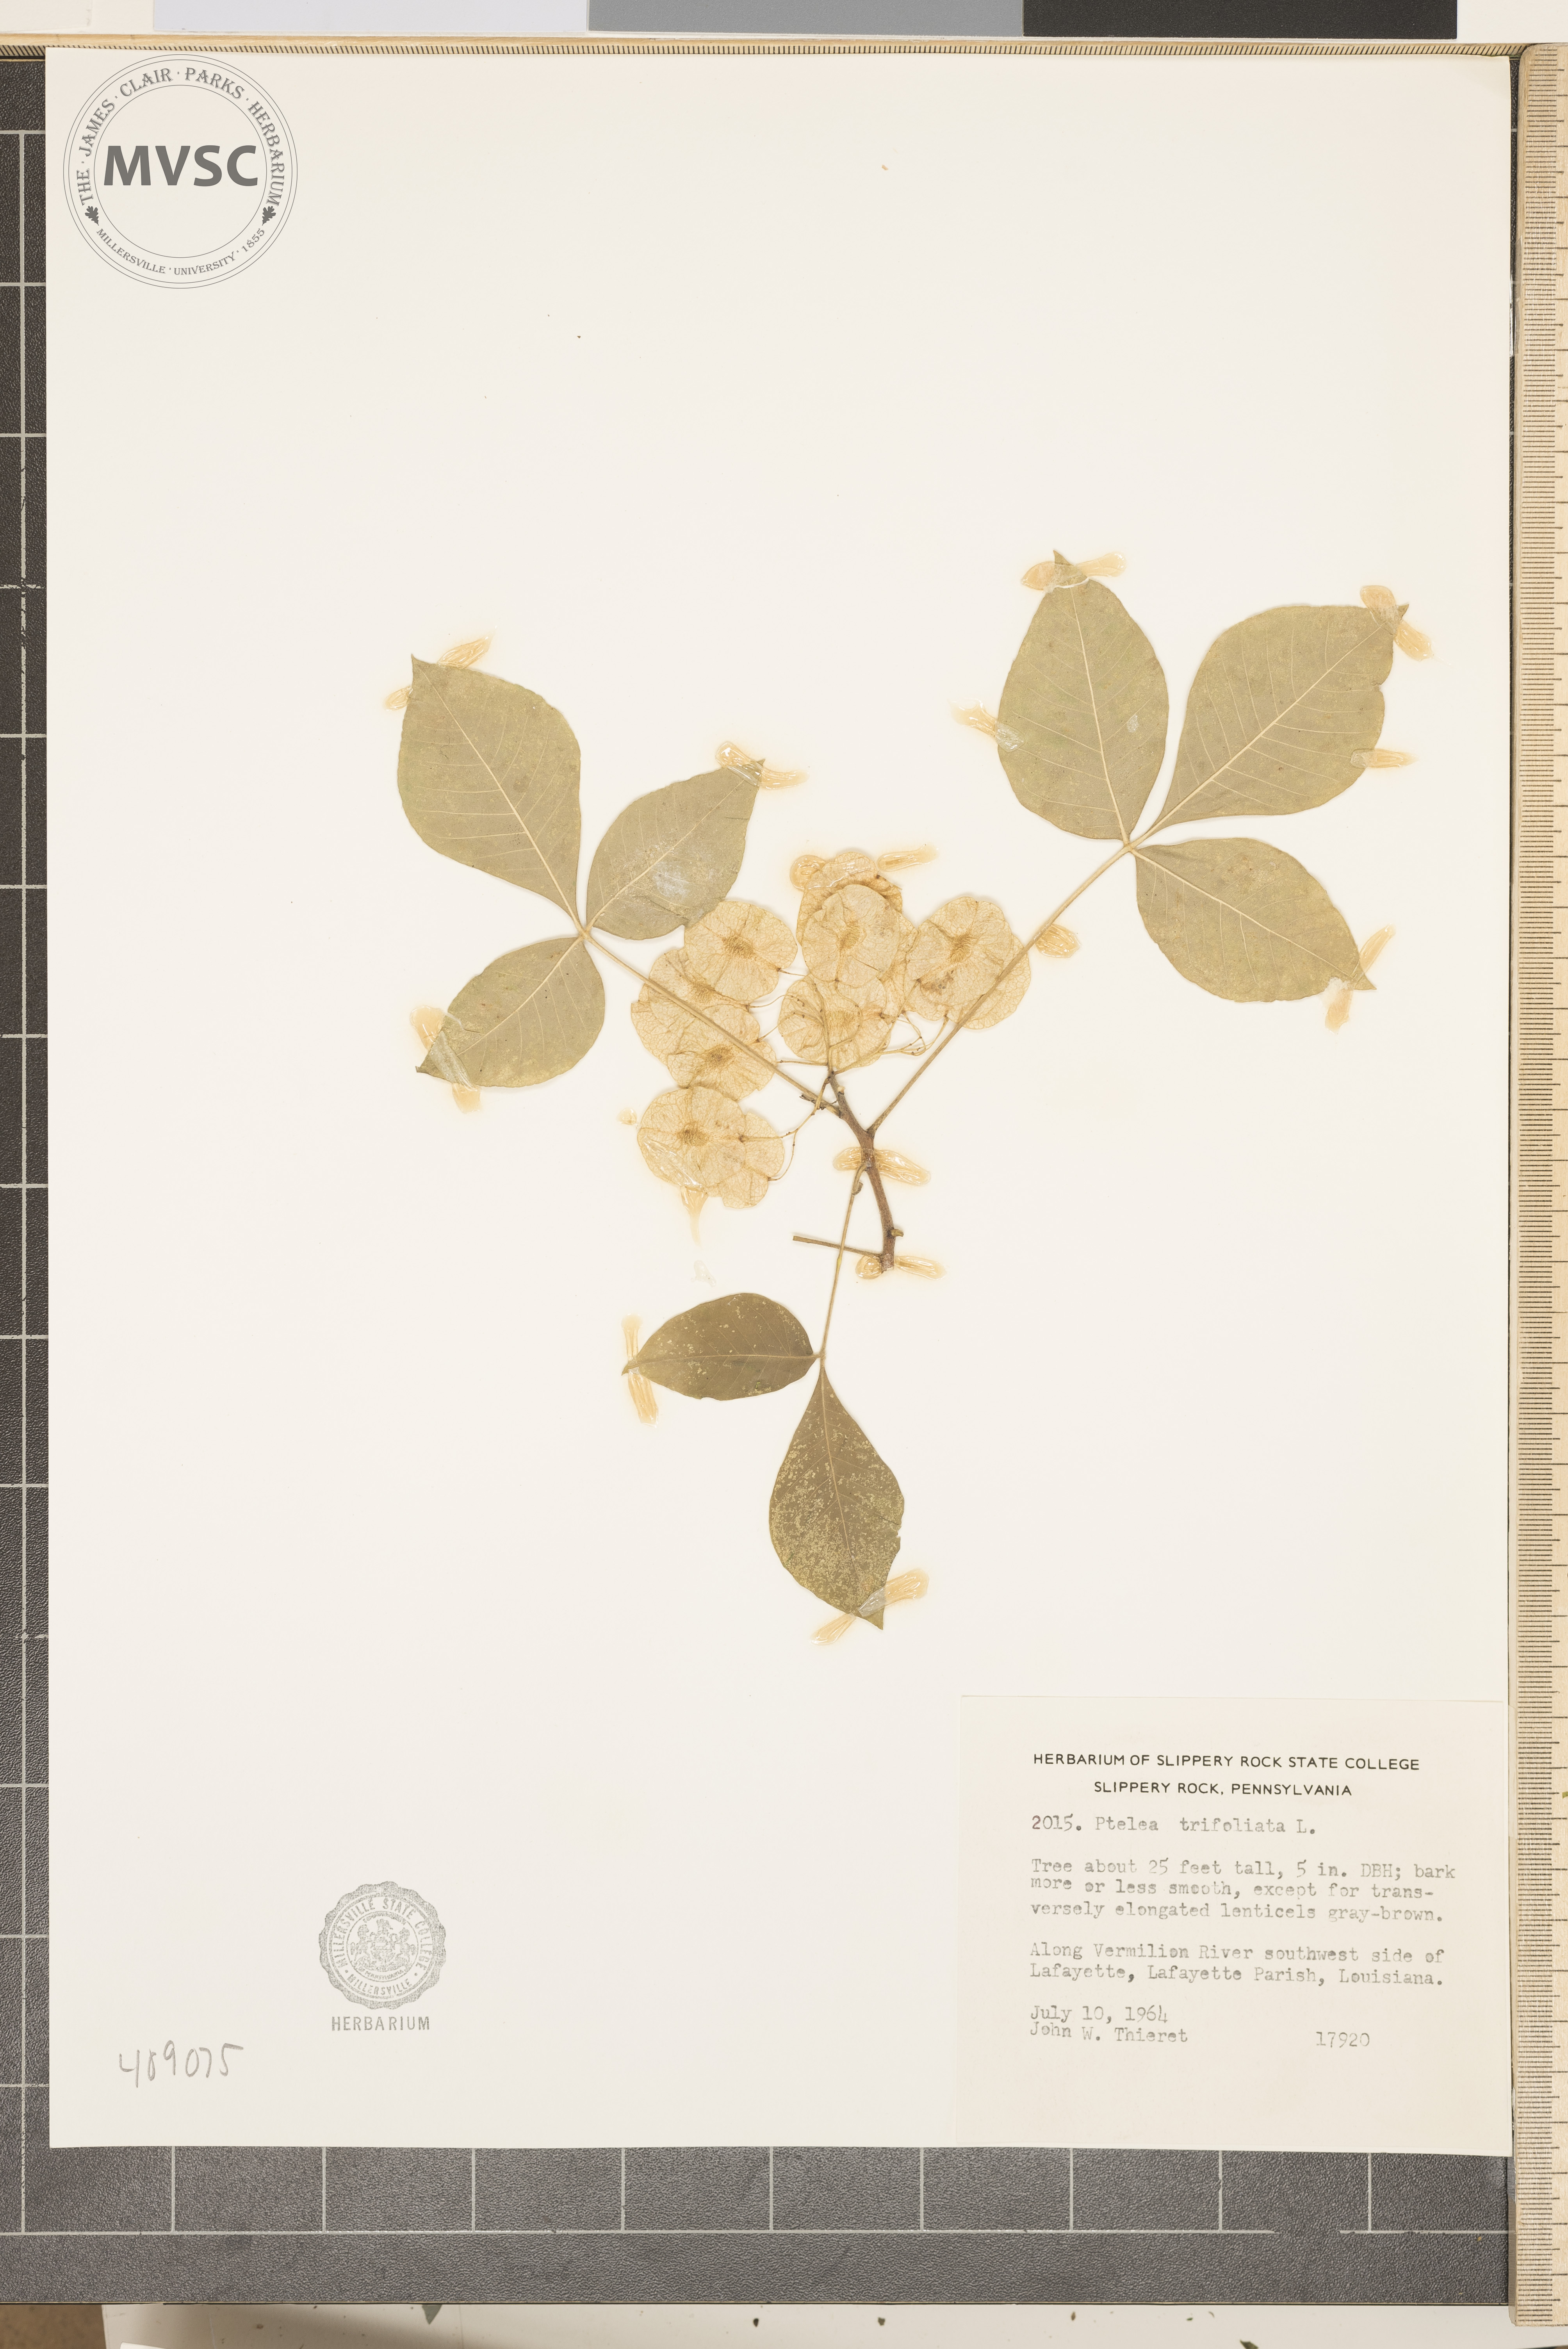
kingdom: Plantae
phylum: Tracheophyta
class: Magnoliopsida
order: Sapindales
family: Rutaceae
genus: Ptelea
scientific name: Ptelea trifoliata
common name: Common hop-tree
